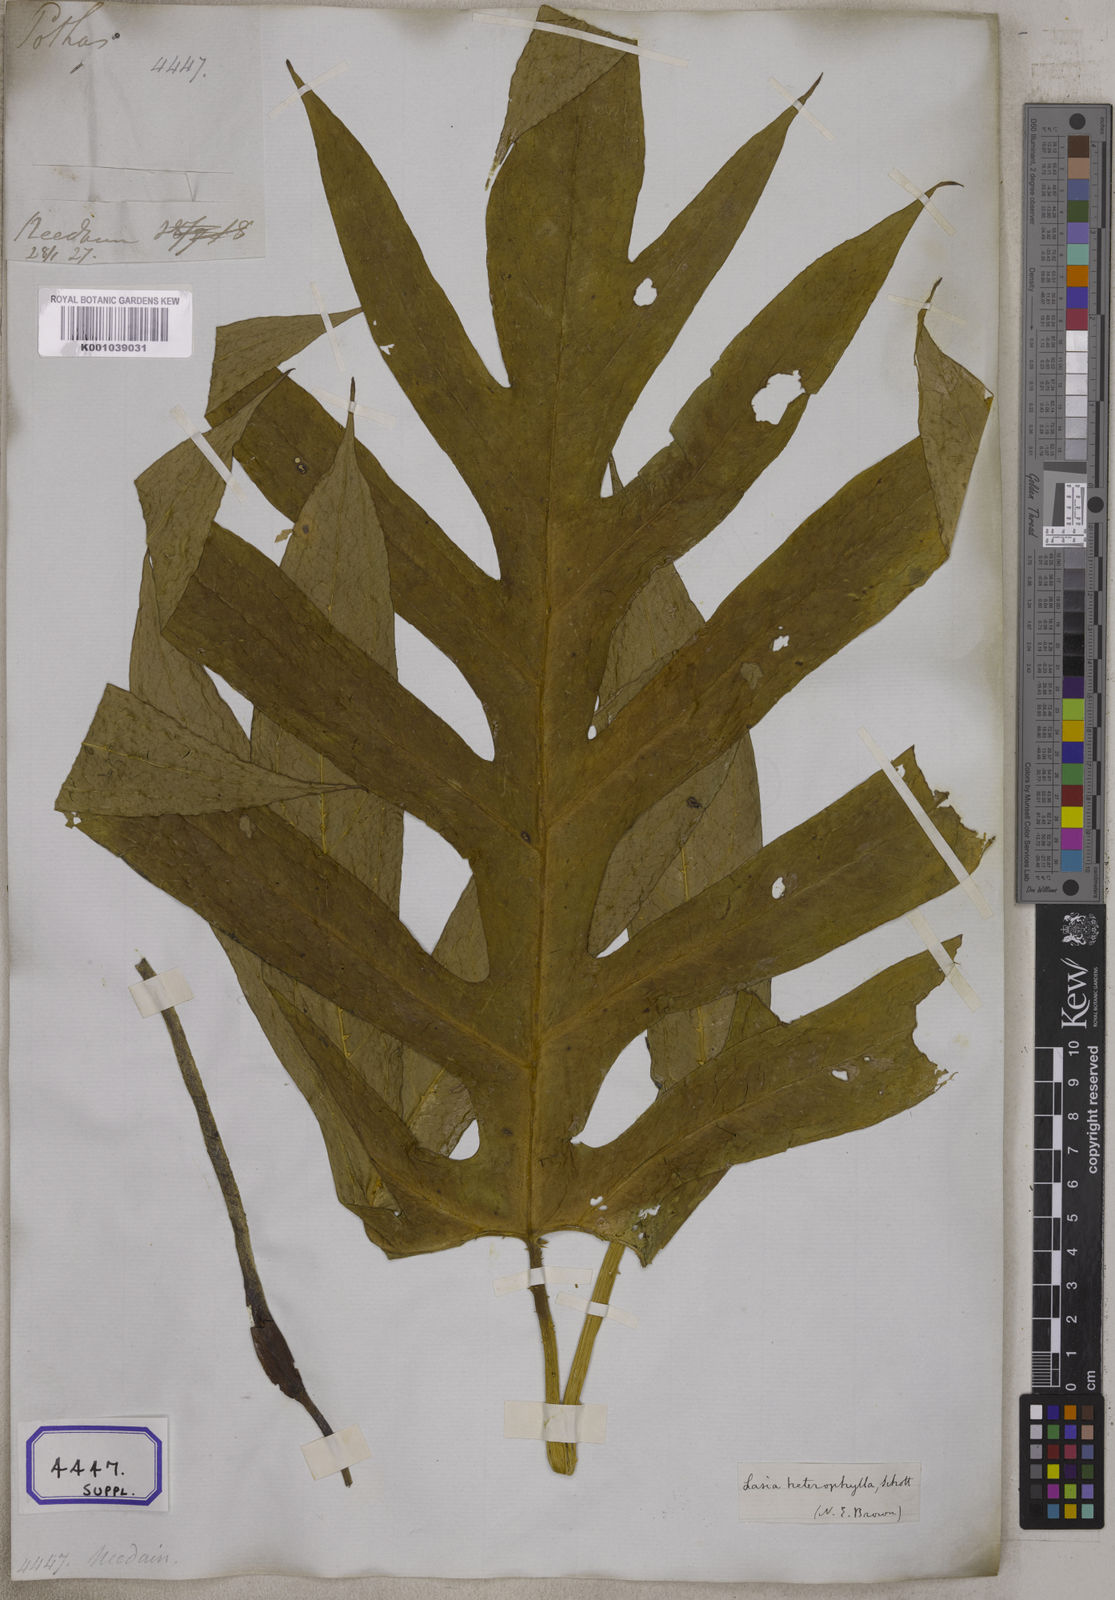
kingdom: Plantae
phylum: Tracheophyta
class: Liliopsida
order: Alismatales
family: Araceae
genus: Lasia
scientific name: Lasia spinosa
